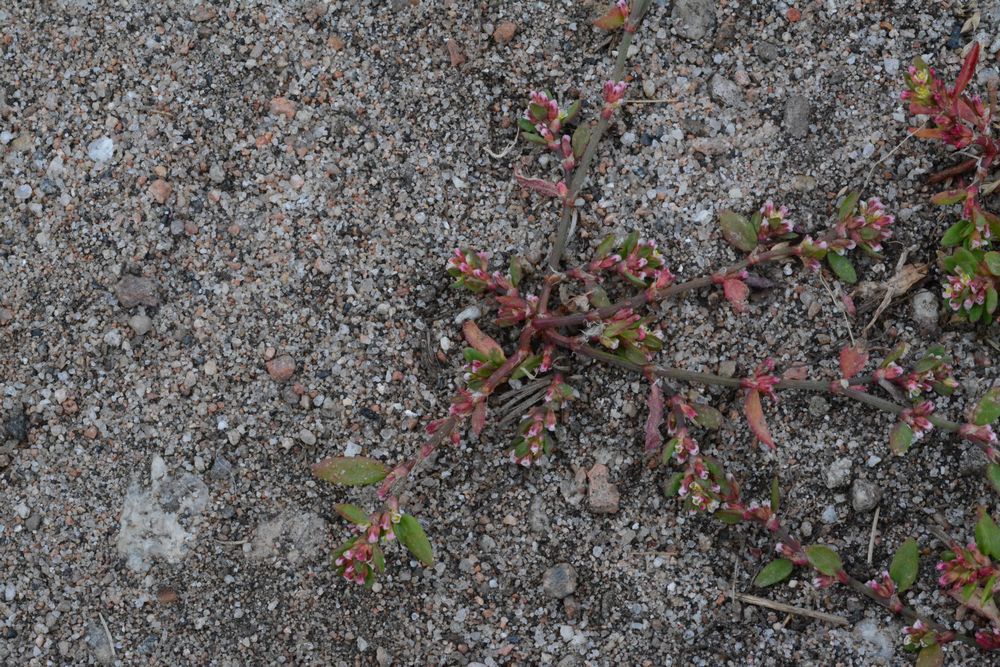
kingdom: Plantae
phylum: Tracheophyta
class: Magnoliopsida
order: Caryophyllales
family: Polygonaceae
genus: Polygonum
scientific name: Polygonum aviculare
